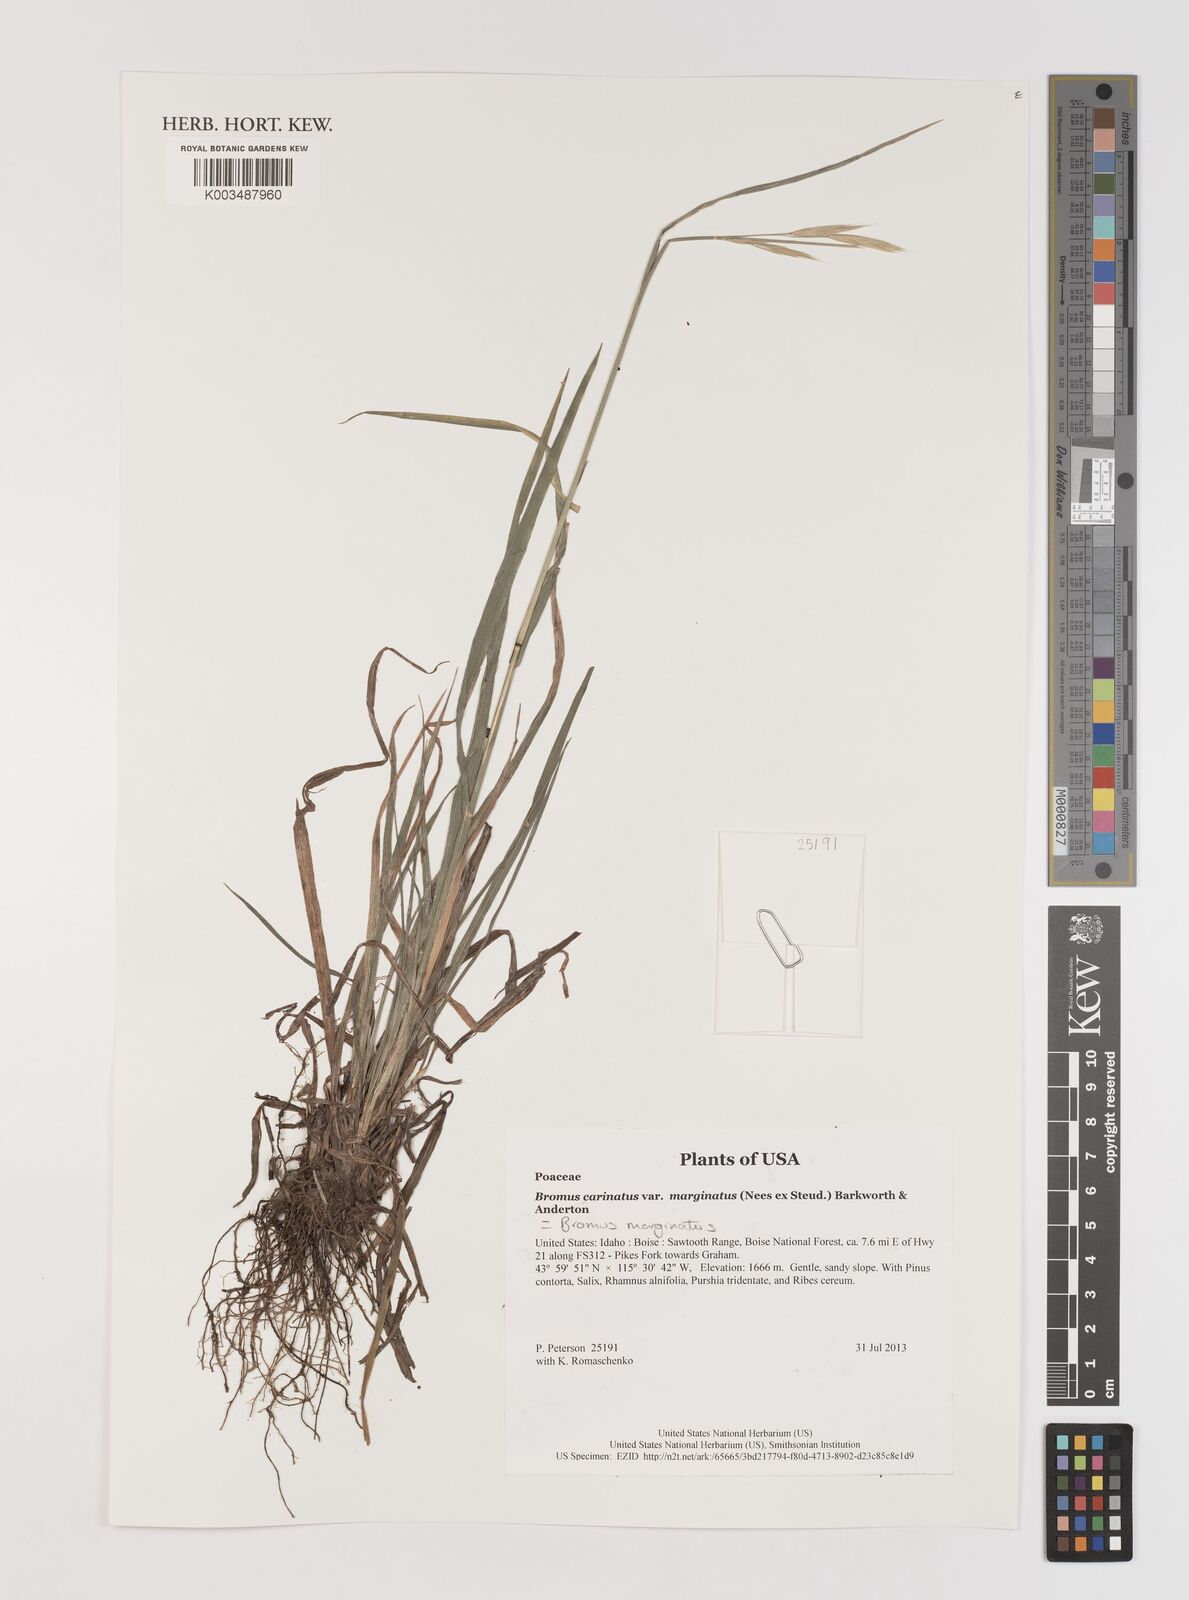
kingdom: Plantae
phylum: Tracheophyta
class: Liliopsida
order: Poales
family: Poaceae
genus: Bromus
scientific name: Bromus marginatus
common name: Western brome
